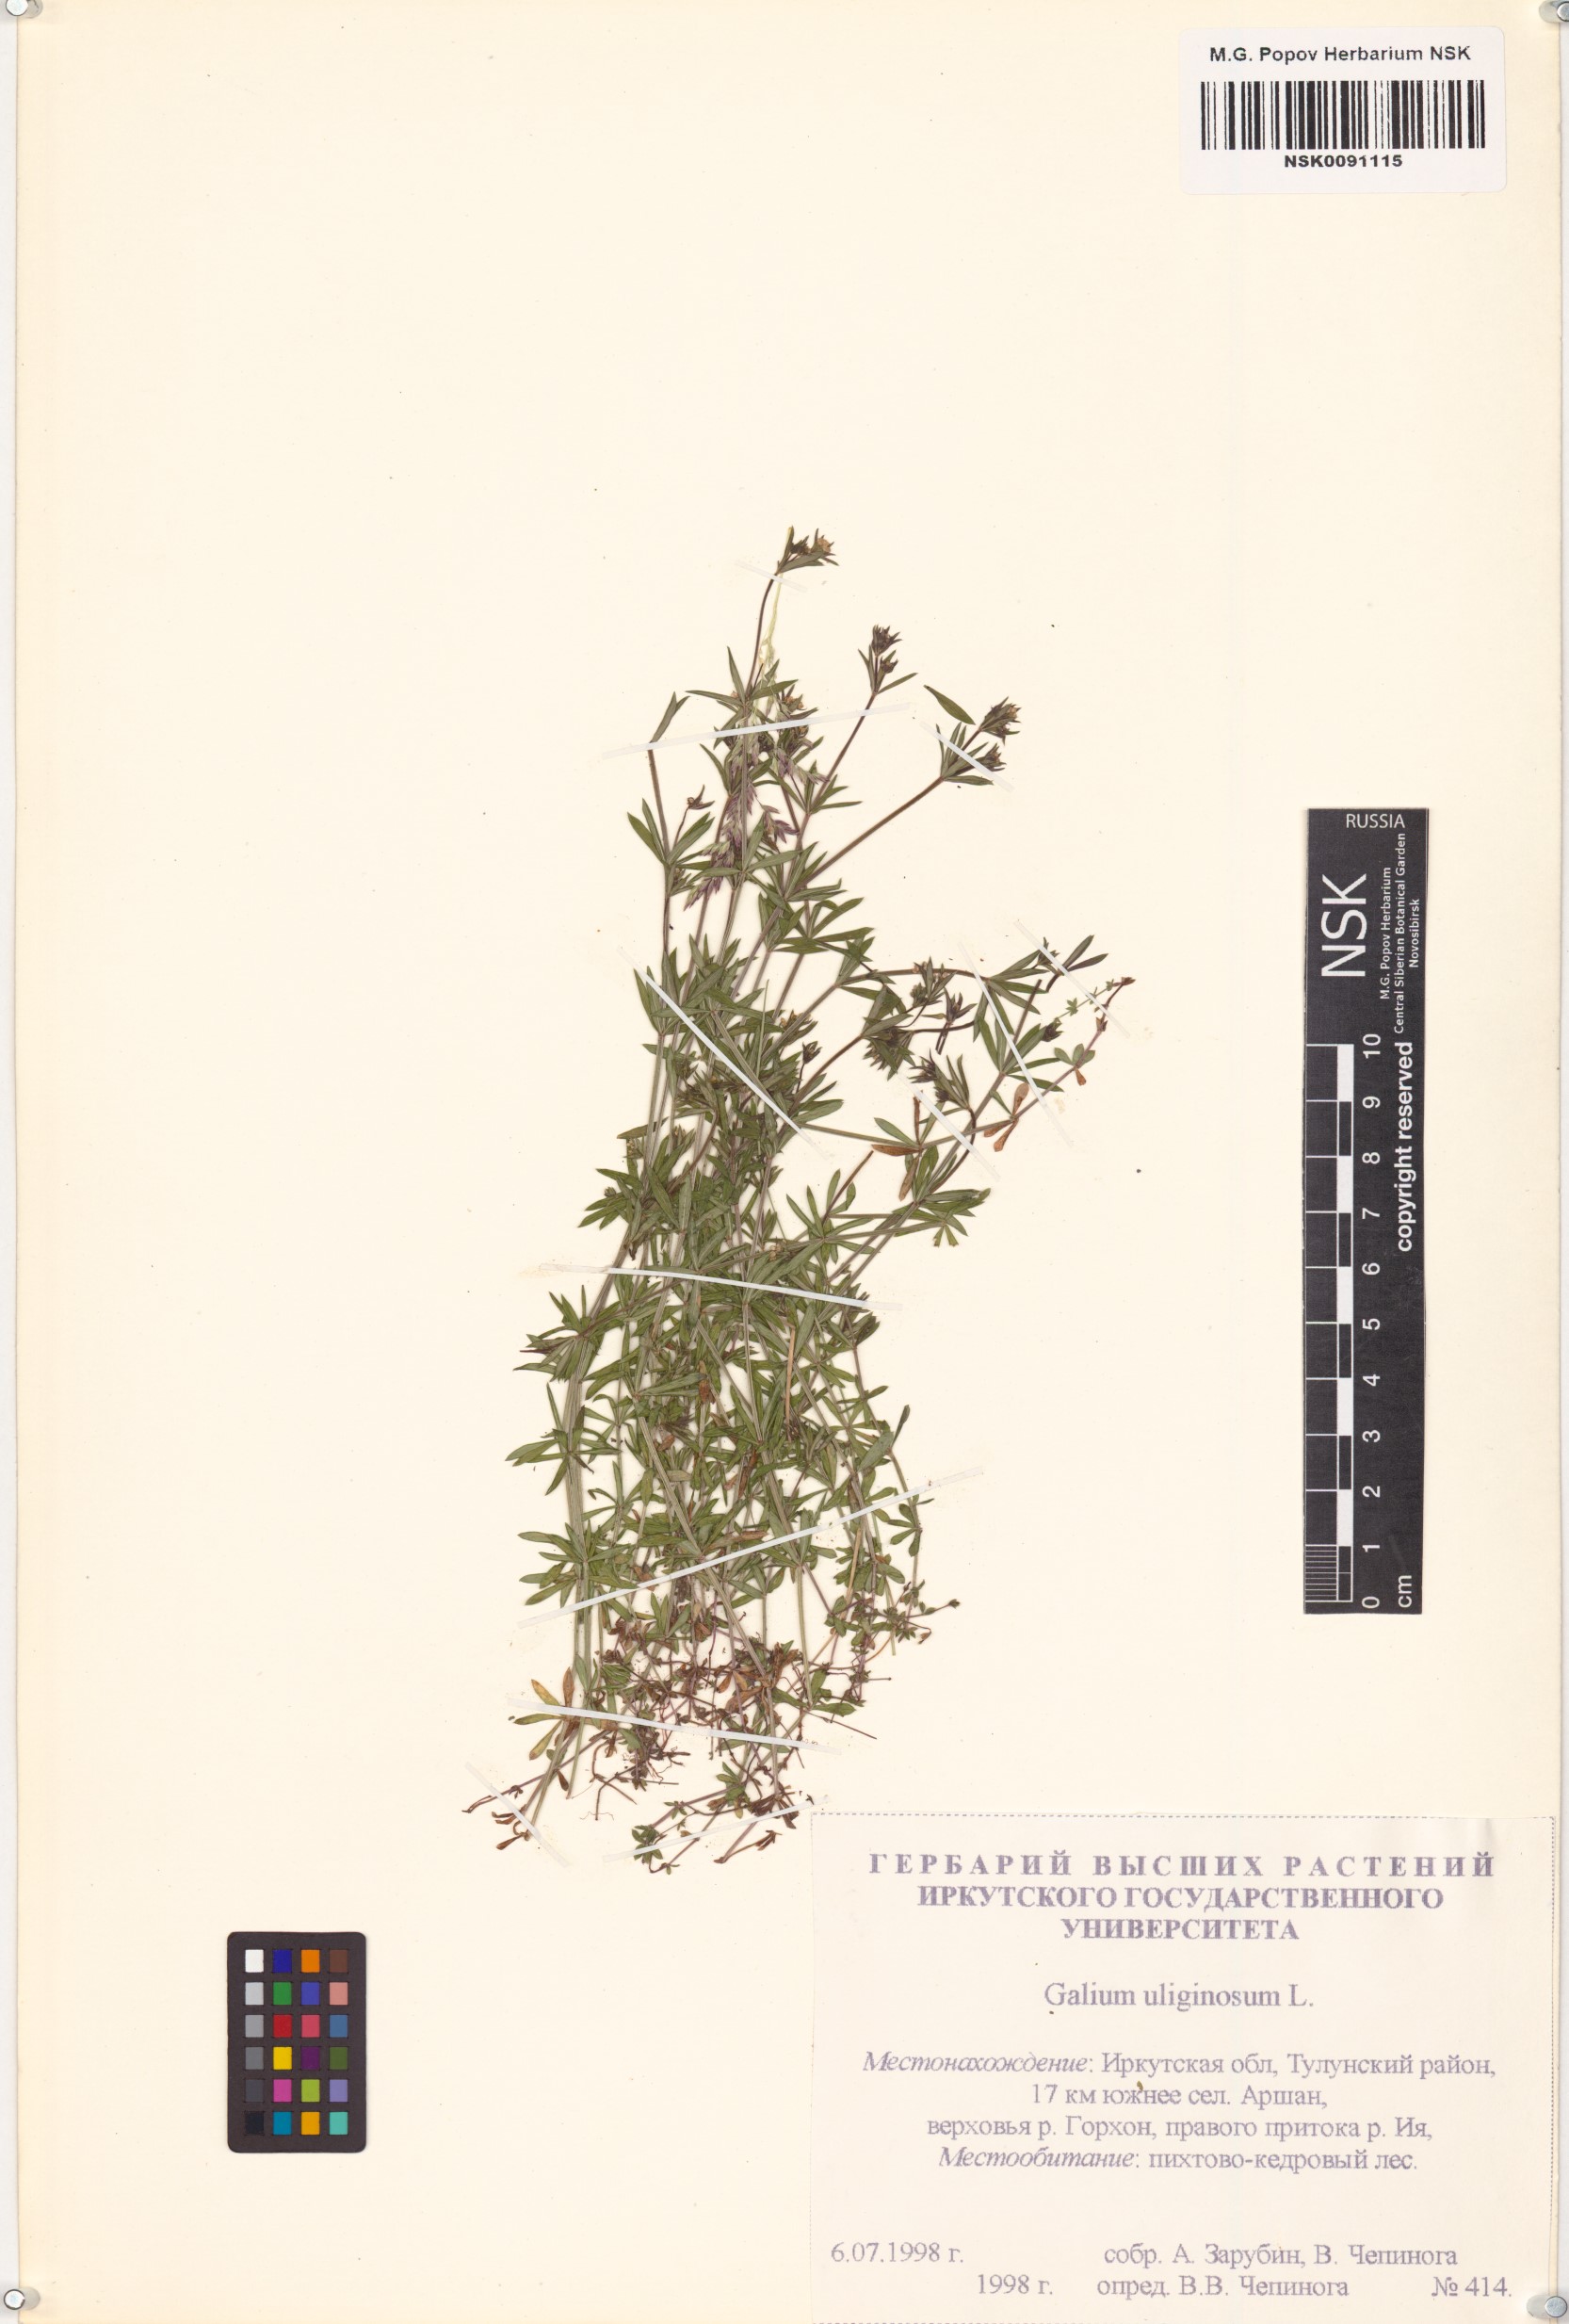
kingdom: Plantae
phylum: Tracheophyta
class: Magnoliopsida
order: Gentianales
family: Rubiaceae
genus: Galium
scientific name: Galium uliginosum
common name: Fen bedstraw
